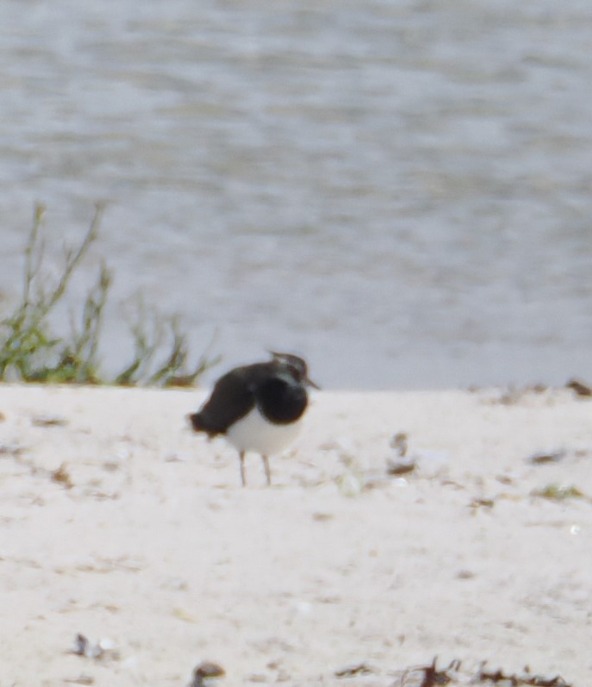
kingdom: Animalia
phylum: Chordata
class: Aves
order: Charadriiformes
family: Charadriidae
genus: Vanellus
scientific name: Vanellus vanellus
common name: Vibe
